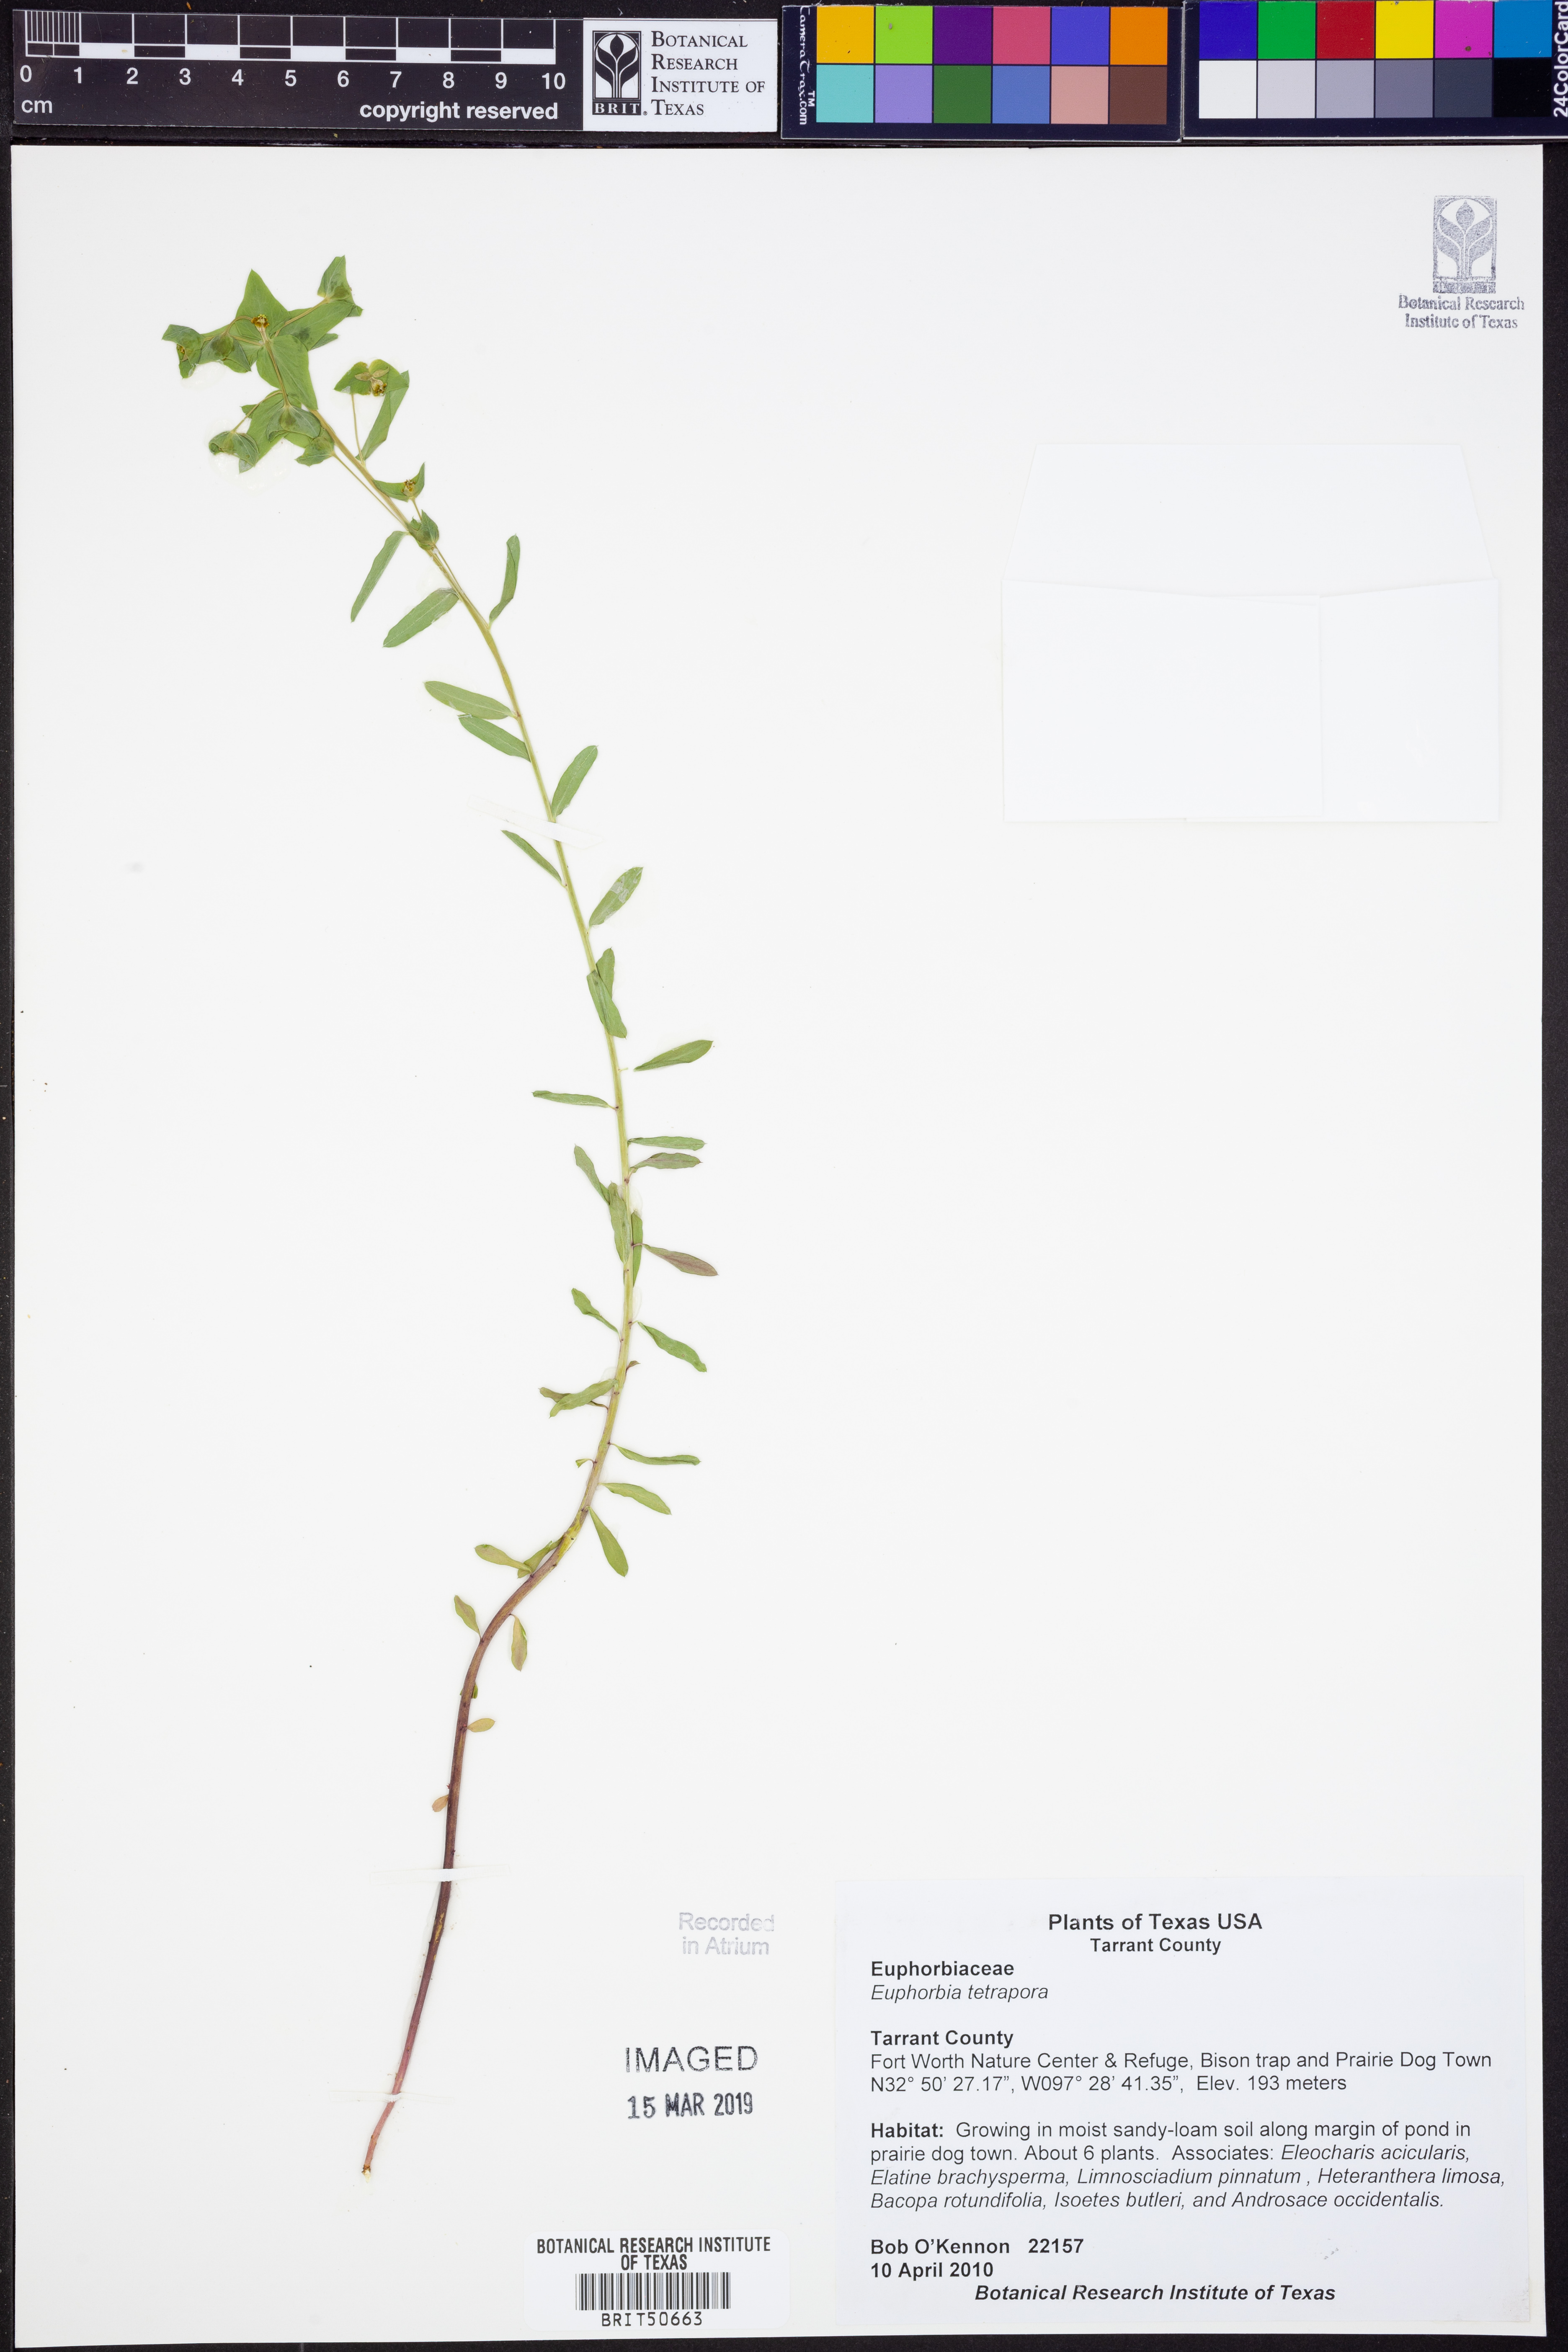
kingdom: Plantae
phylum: Tracheophyta
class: Magnoliopsida
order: Malpighiales
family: Euphorbiaceae
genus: Euphorbia
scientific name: Euphorbia tetrapora
